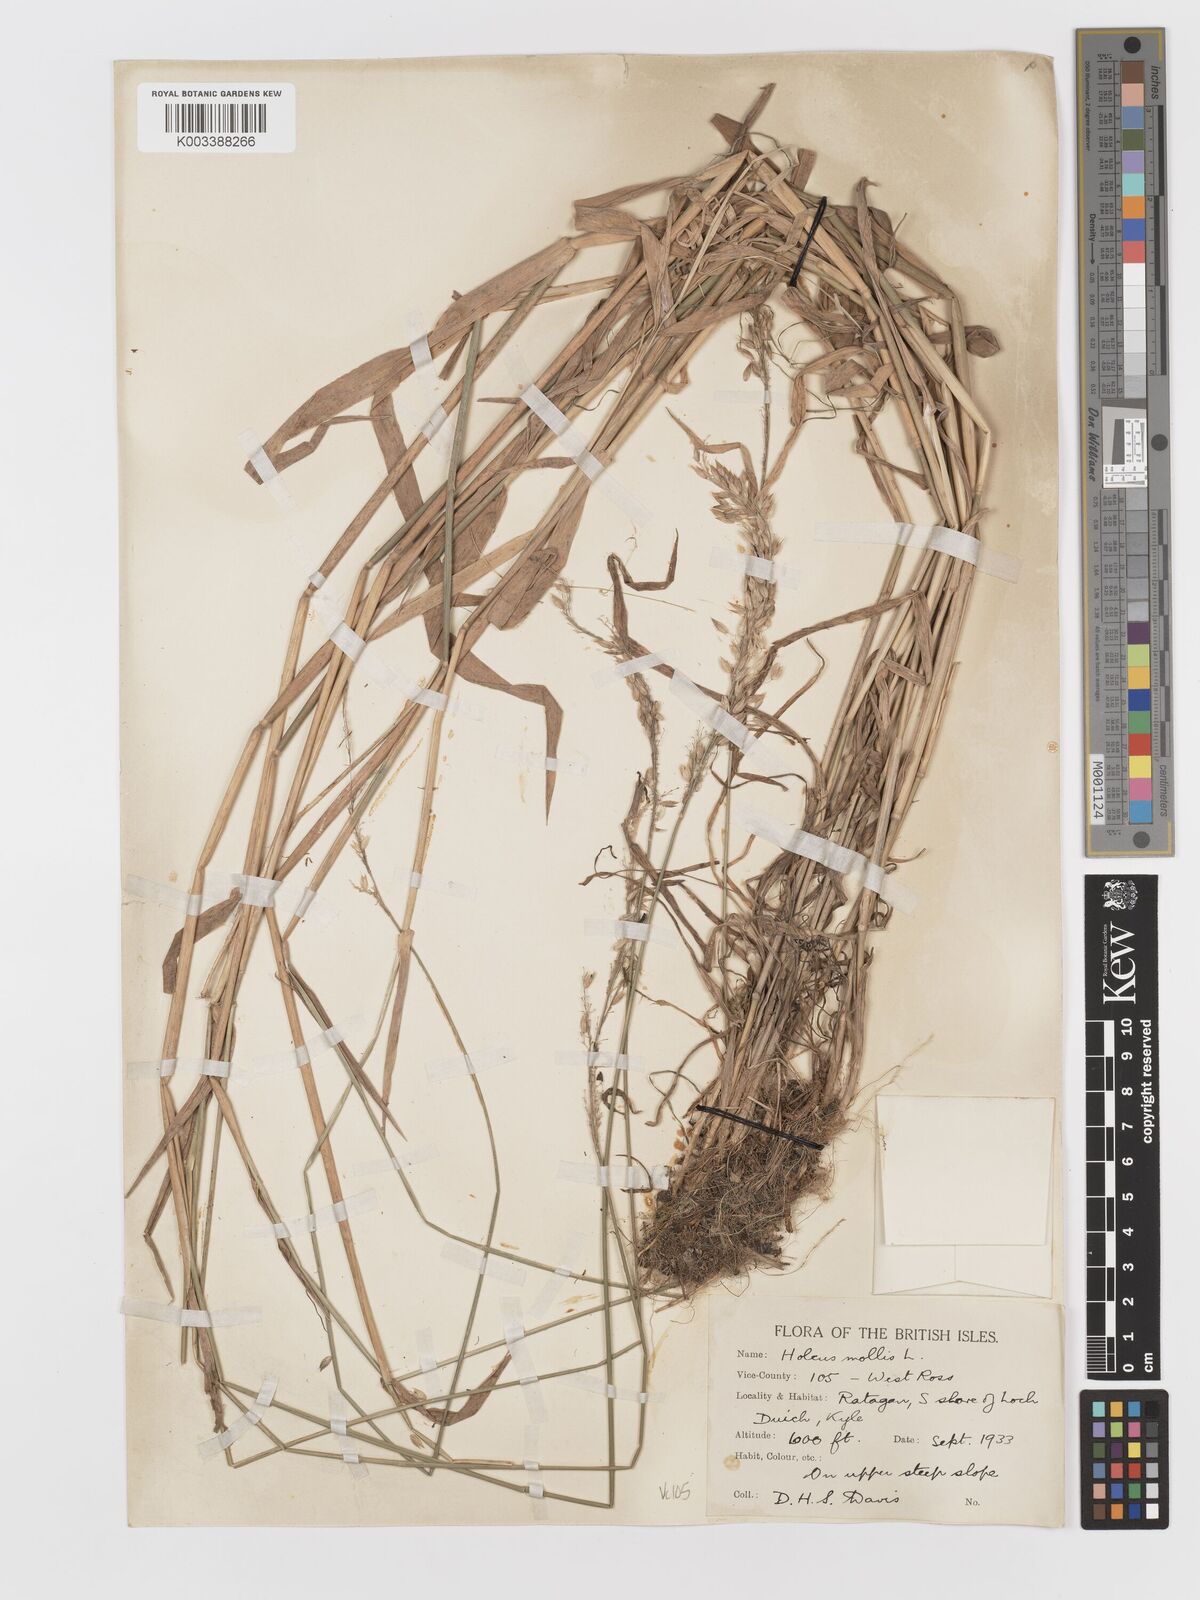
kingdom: Plantae
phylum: Tracheophyta
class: Liliopsida
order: Poales
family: Poaceae
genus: Holcus
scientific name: Holcus mollis
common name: Creeping velvetgrass
